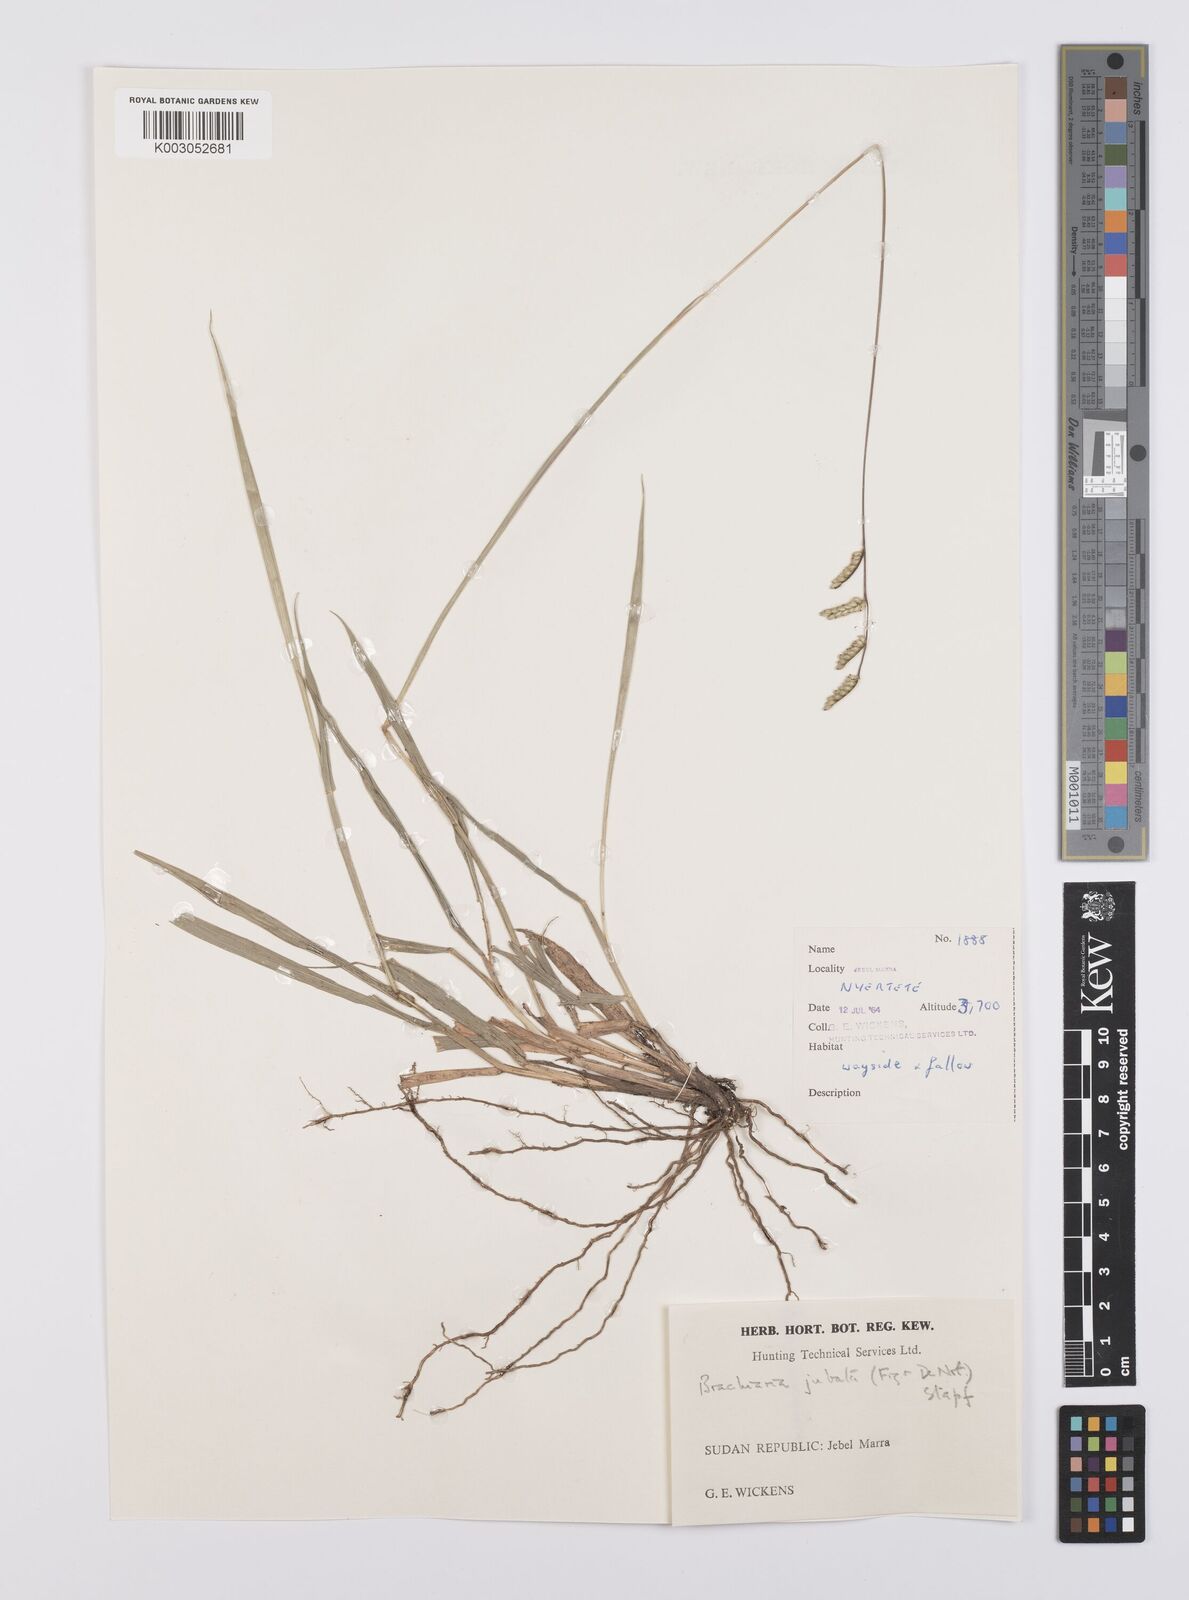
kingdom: Plantae
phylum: Tracheophyta
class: Liliopsida
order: Poales
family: Poaceae
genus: Urochloa
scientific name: Urochloa jubata
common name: Buffalograss
